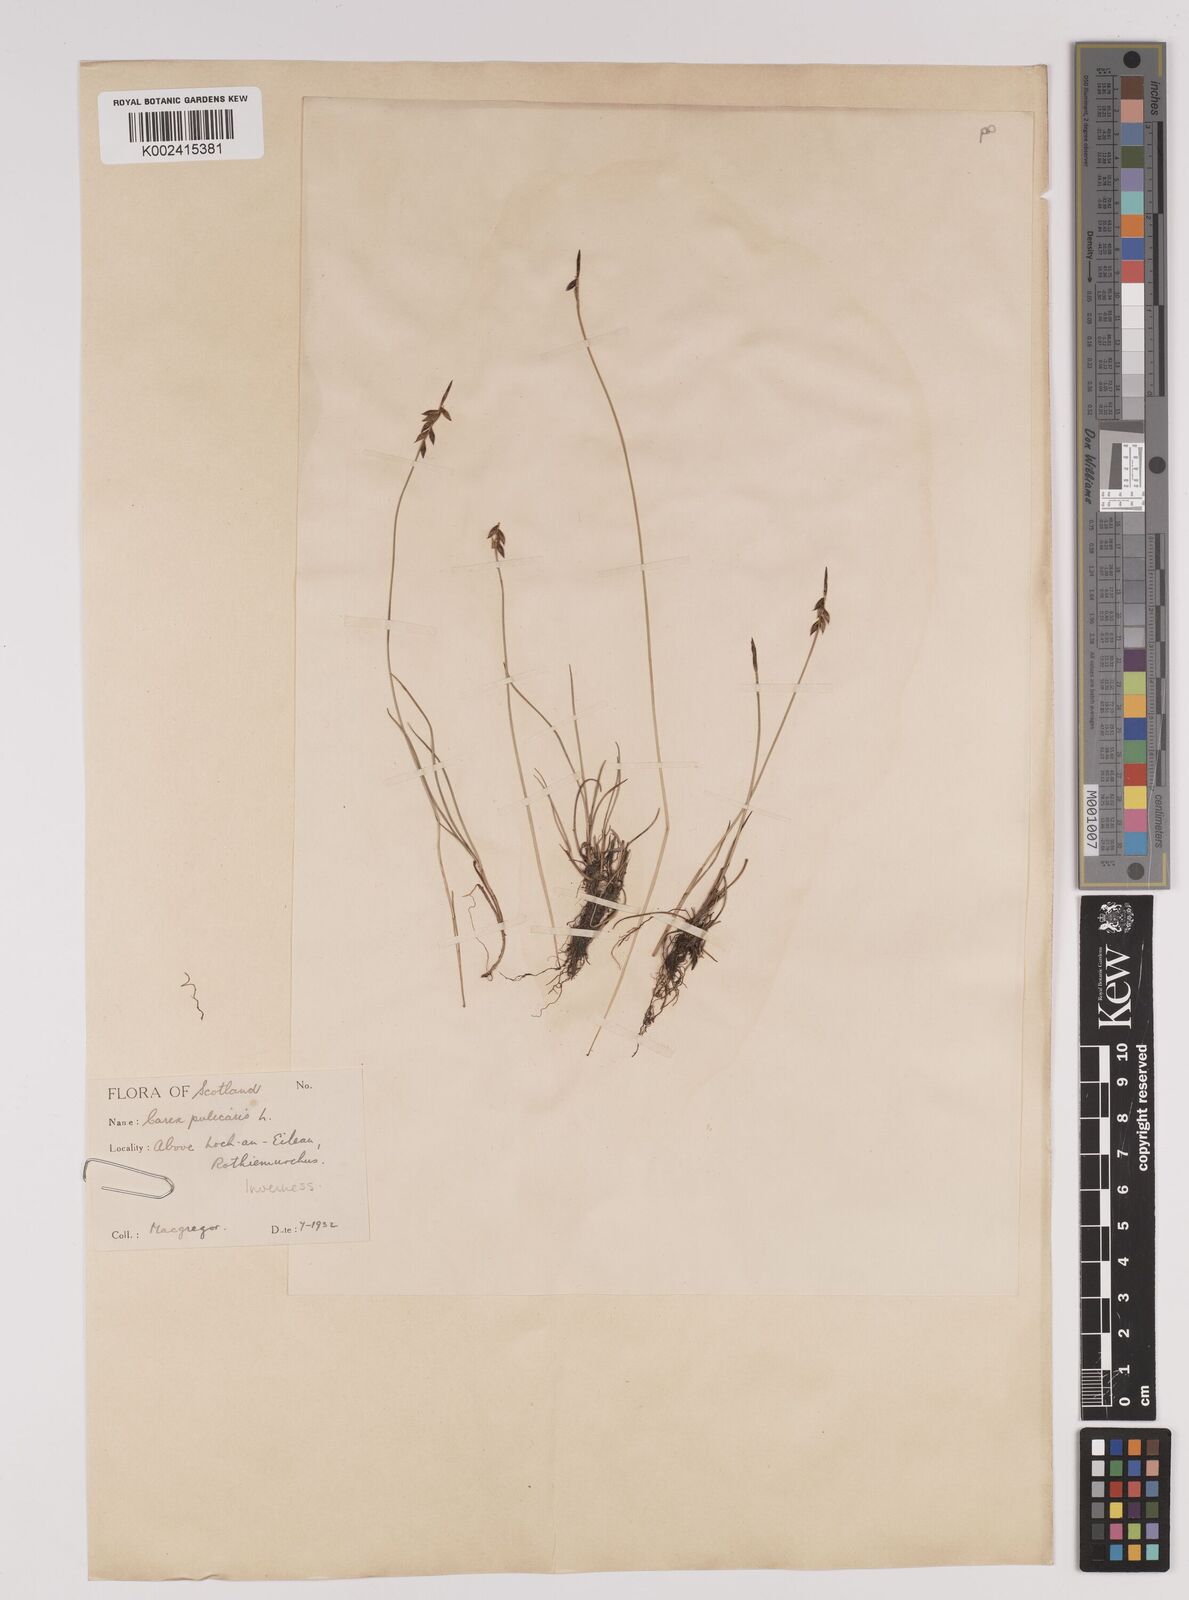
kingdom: Plantae
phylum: Tracheophyta
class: Liliopsida
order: Poales
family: Cyperaceae
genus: Carex
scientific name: Carex pulicaris
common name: Flea sedge
